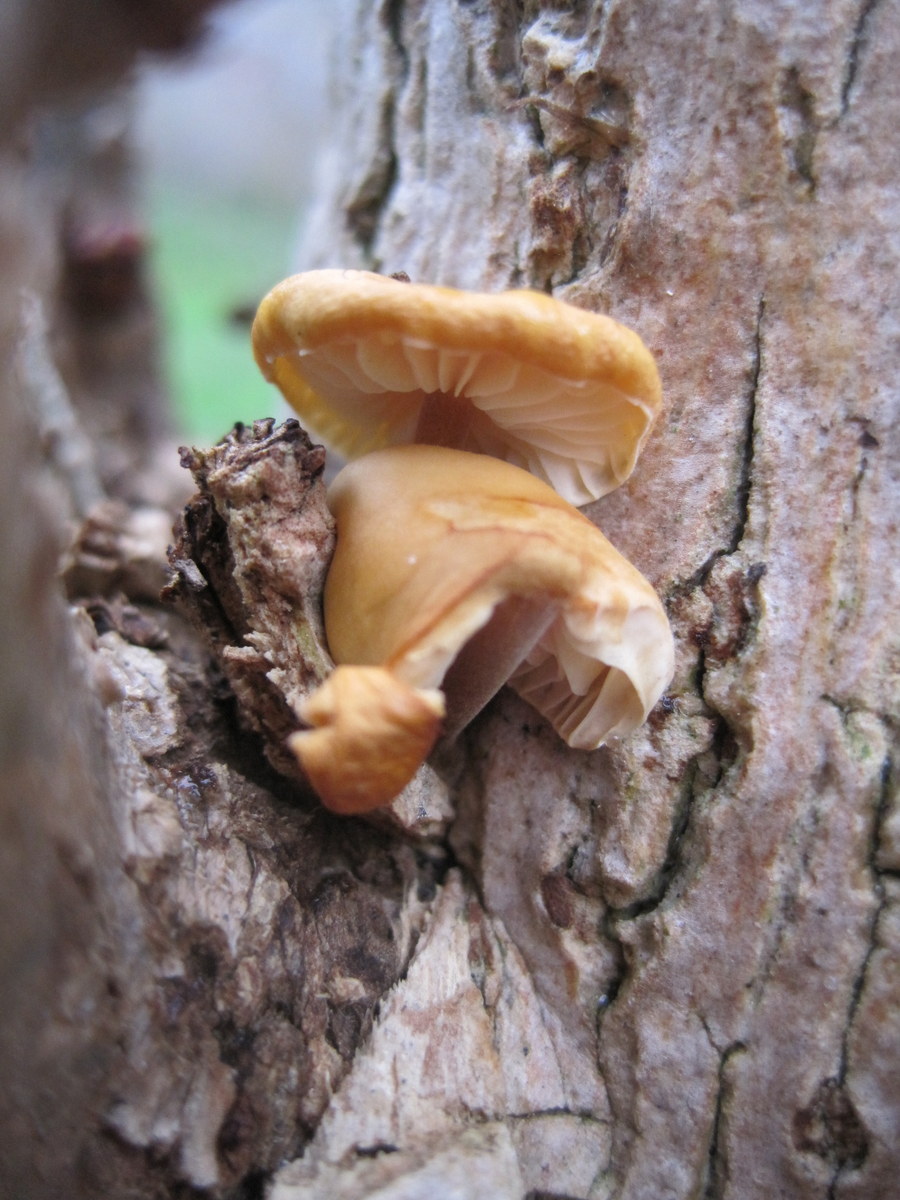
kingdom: Fungi
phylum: Basidiomycota
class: Agaricomycetes
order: Agaricales
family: Physalacriaceae
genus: Flammulina
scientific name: Flammulina elastica
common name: pile-fløjlsfod
